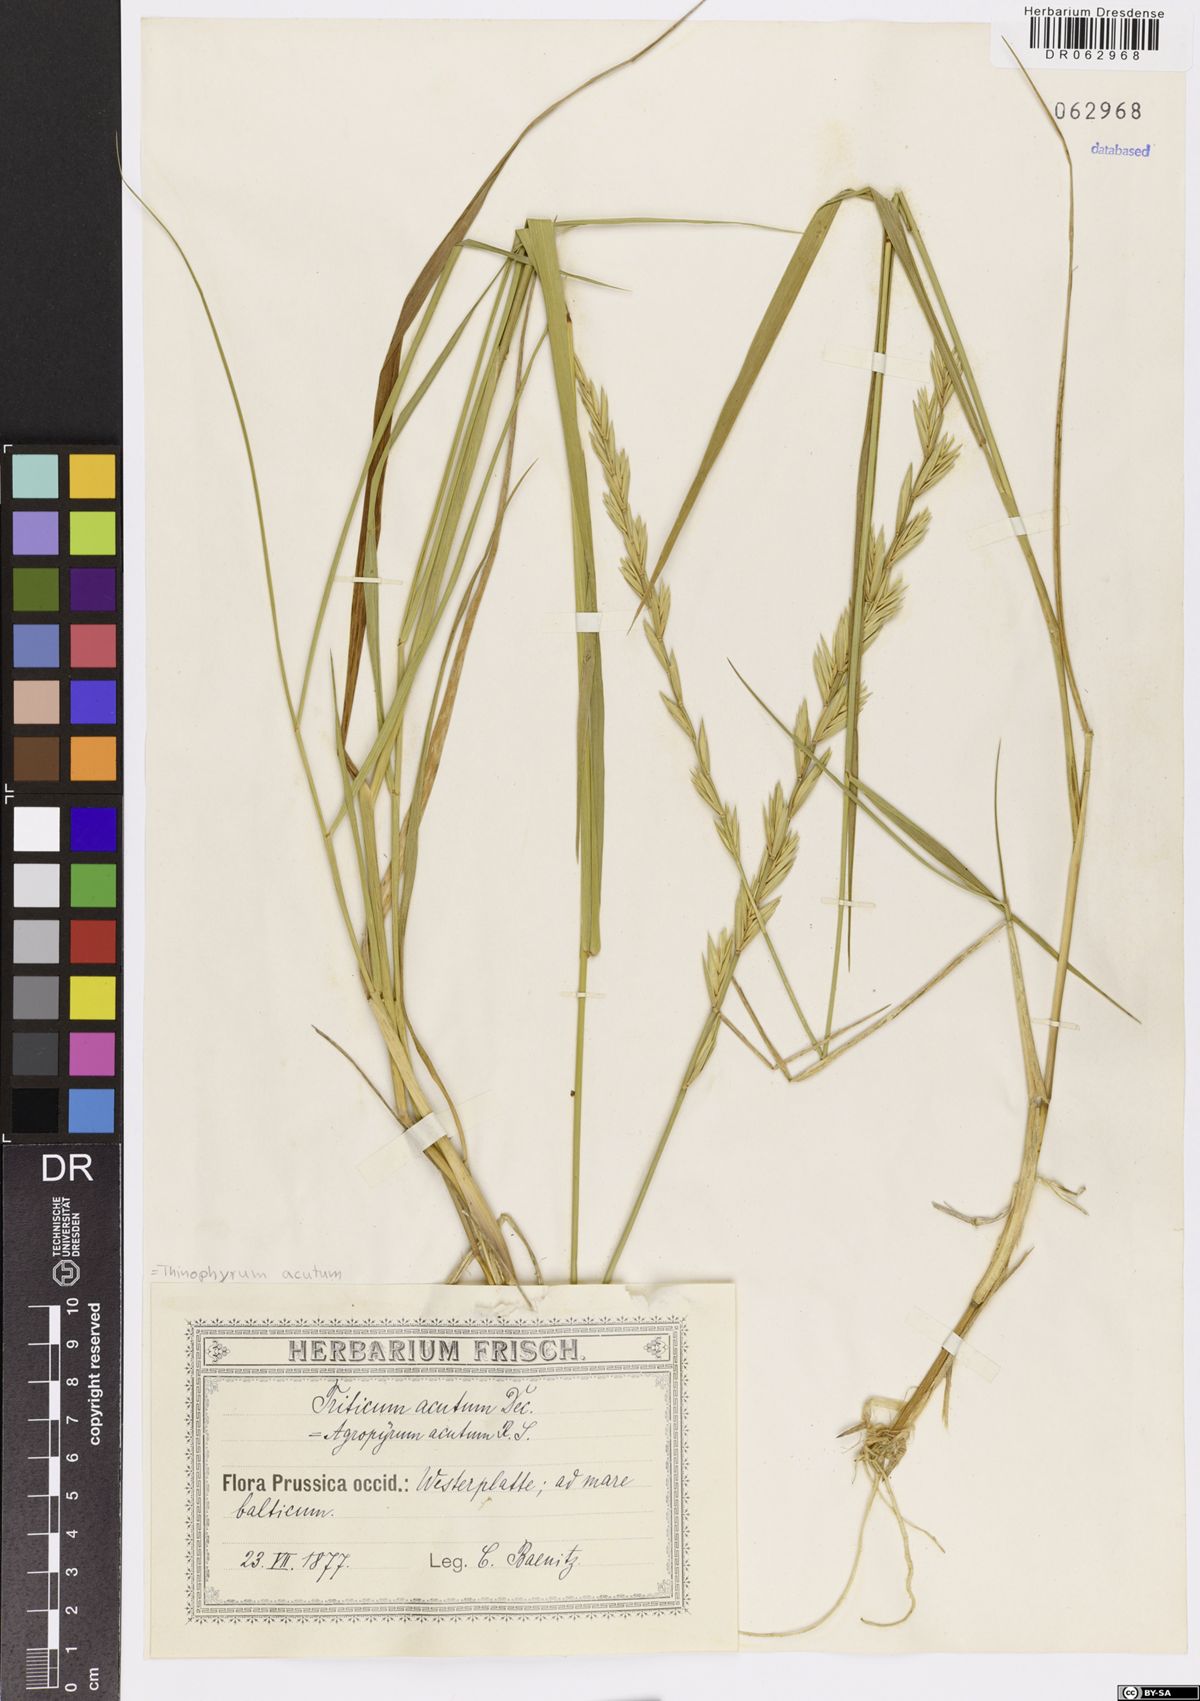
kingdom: Plantae
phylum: Tracheophyta
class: Liliopsida
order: Poales
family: Poaceae
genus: Thinopyrum
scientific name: Thinopyrum acutum
